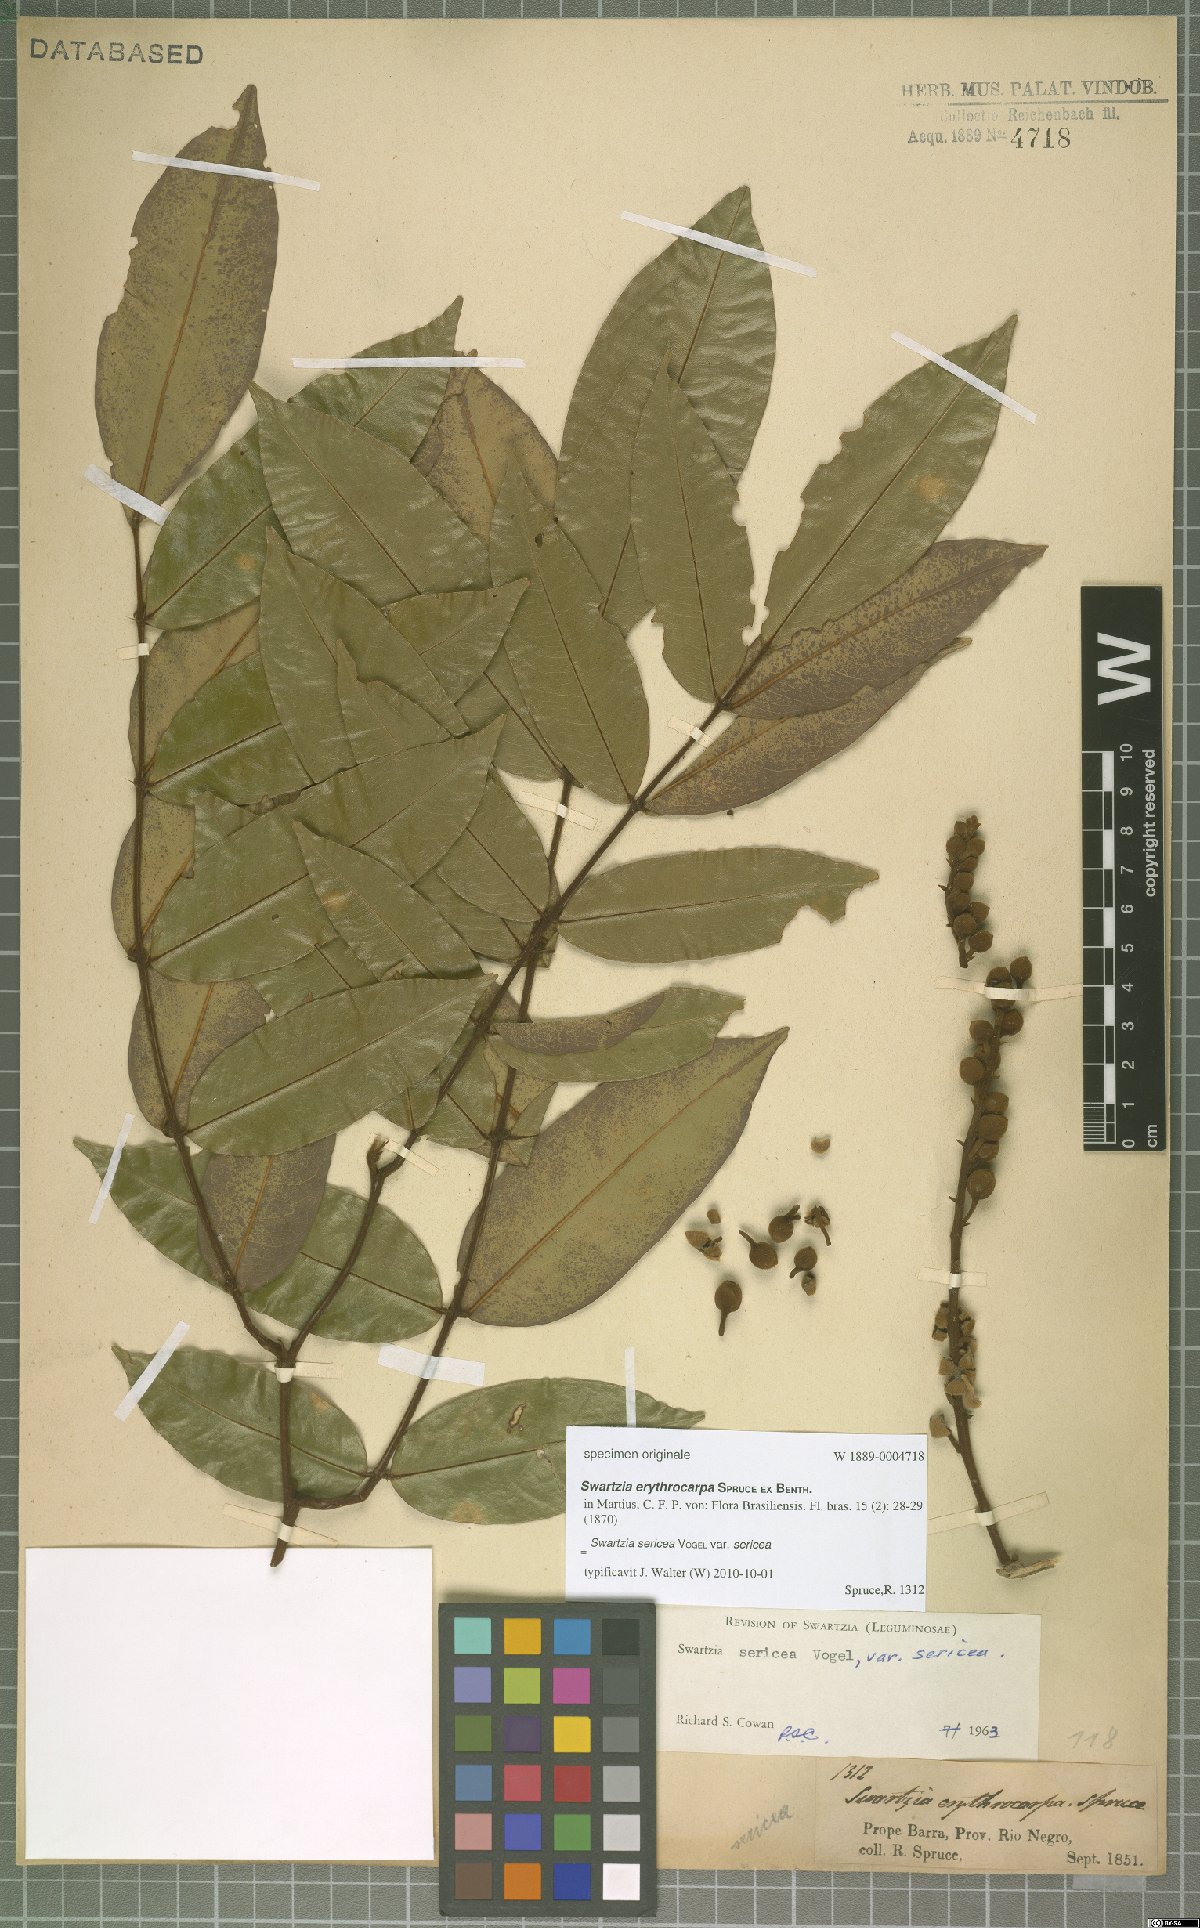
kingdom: Plantae
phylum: Tracheophyta
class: Magnoliopsida
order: Fabales
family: Fabaceae
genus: Swartzia
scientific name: Swartzia sericea
